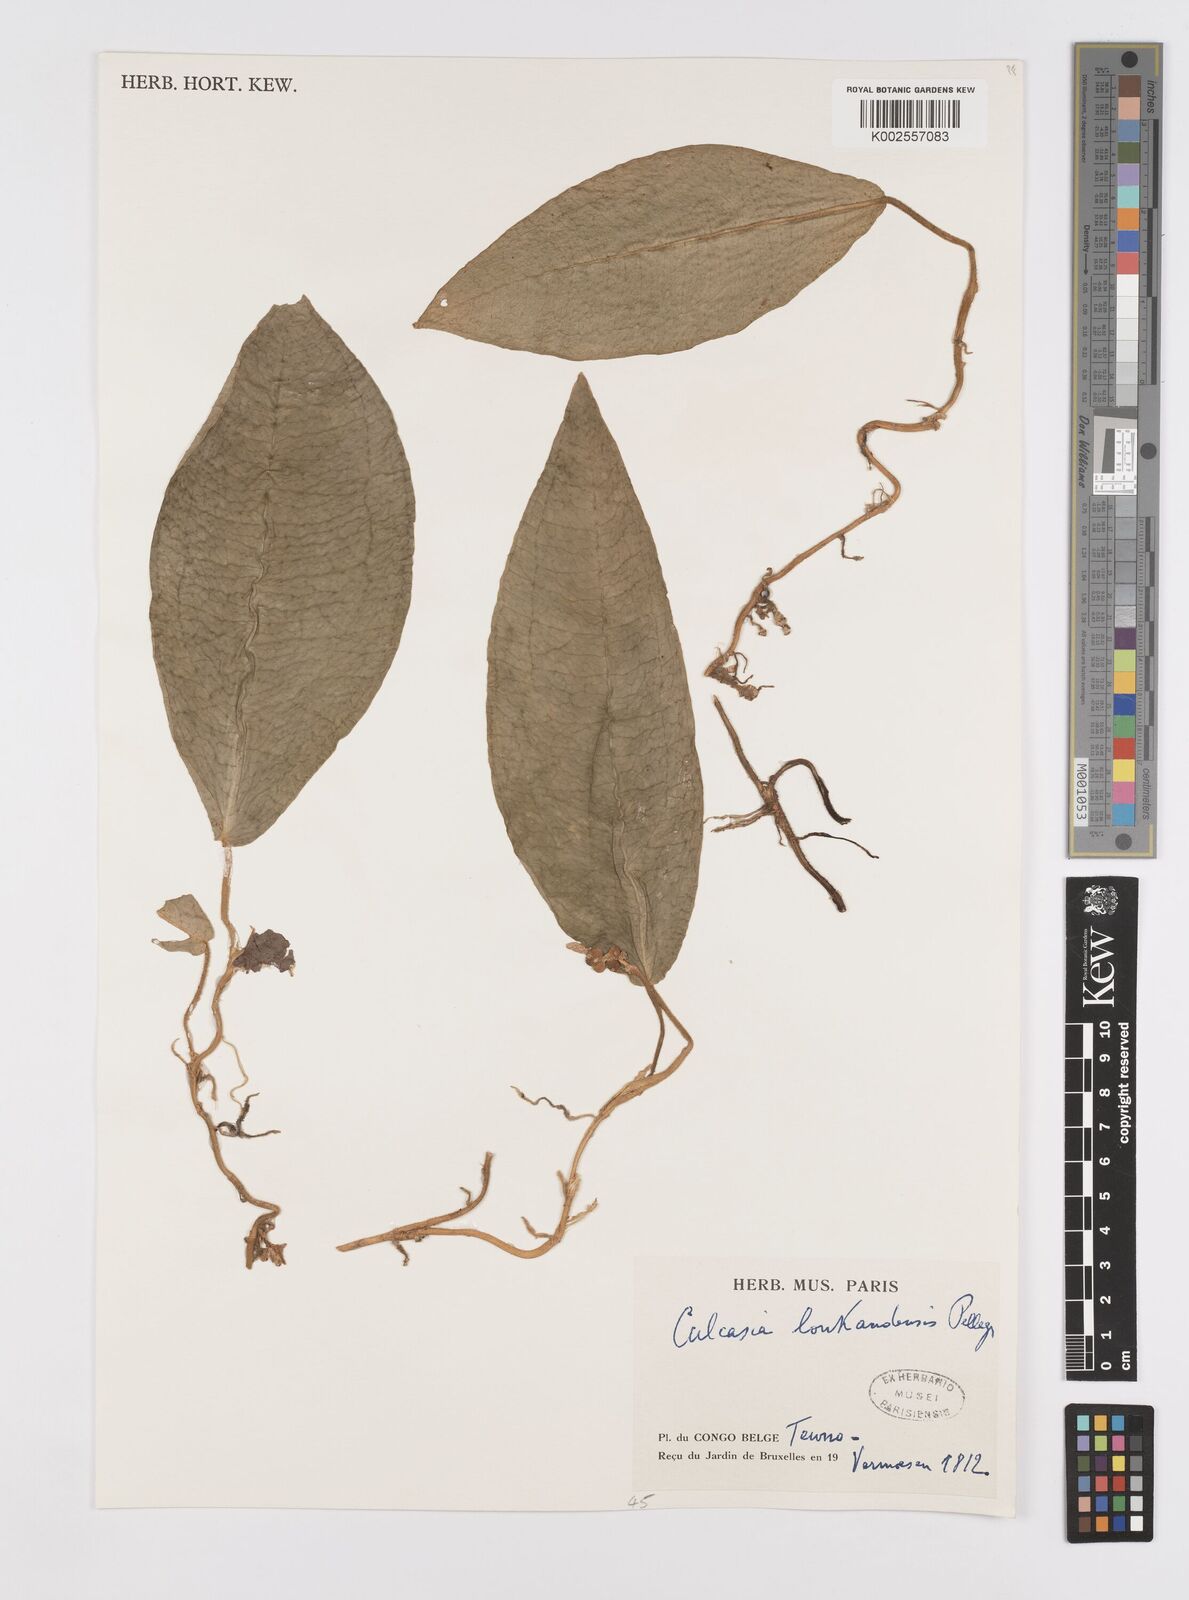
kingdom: Plantae
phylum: Tracheophyta
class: Liliopsida
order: Alismatales
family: Araceae
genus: Culcasia
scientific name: Culcasia loukandensis
